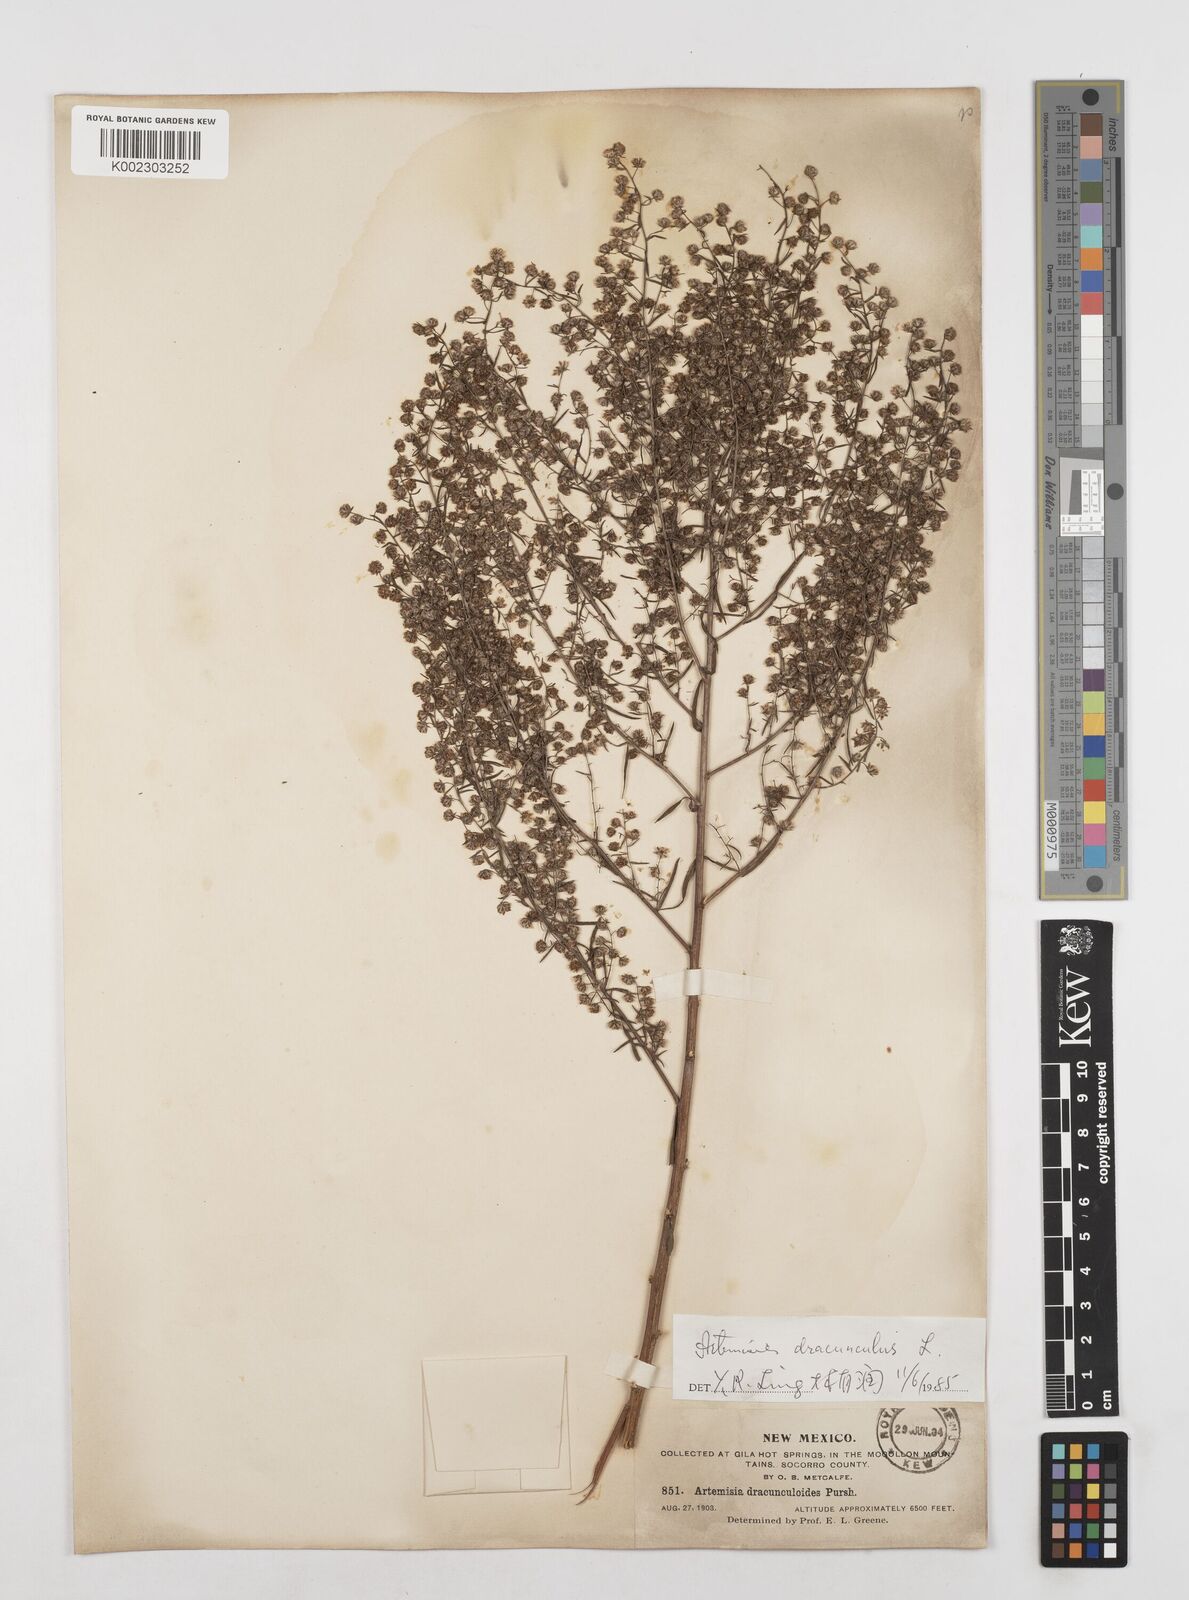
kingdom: Plantae
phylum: Tracheophyta
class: Magnoliopsida
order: Asterales
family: Asteraceae
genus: Artemisia
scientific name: Artemisia dracunculus
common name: Tarragon
